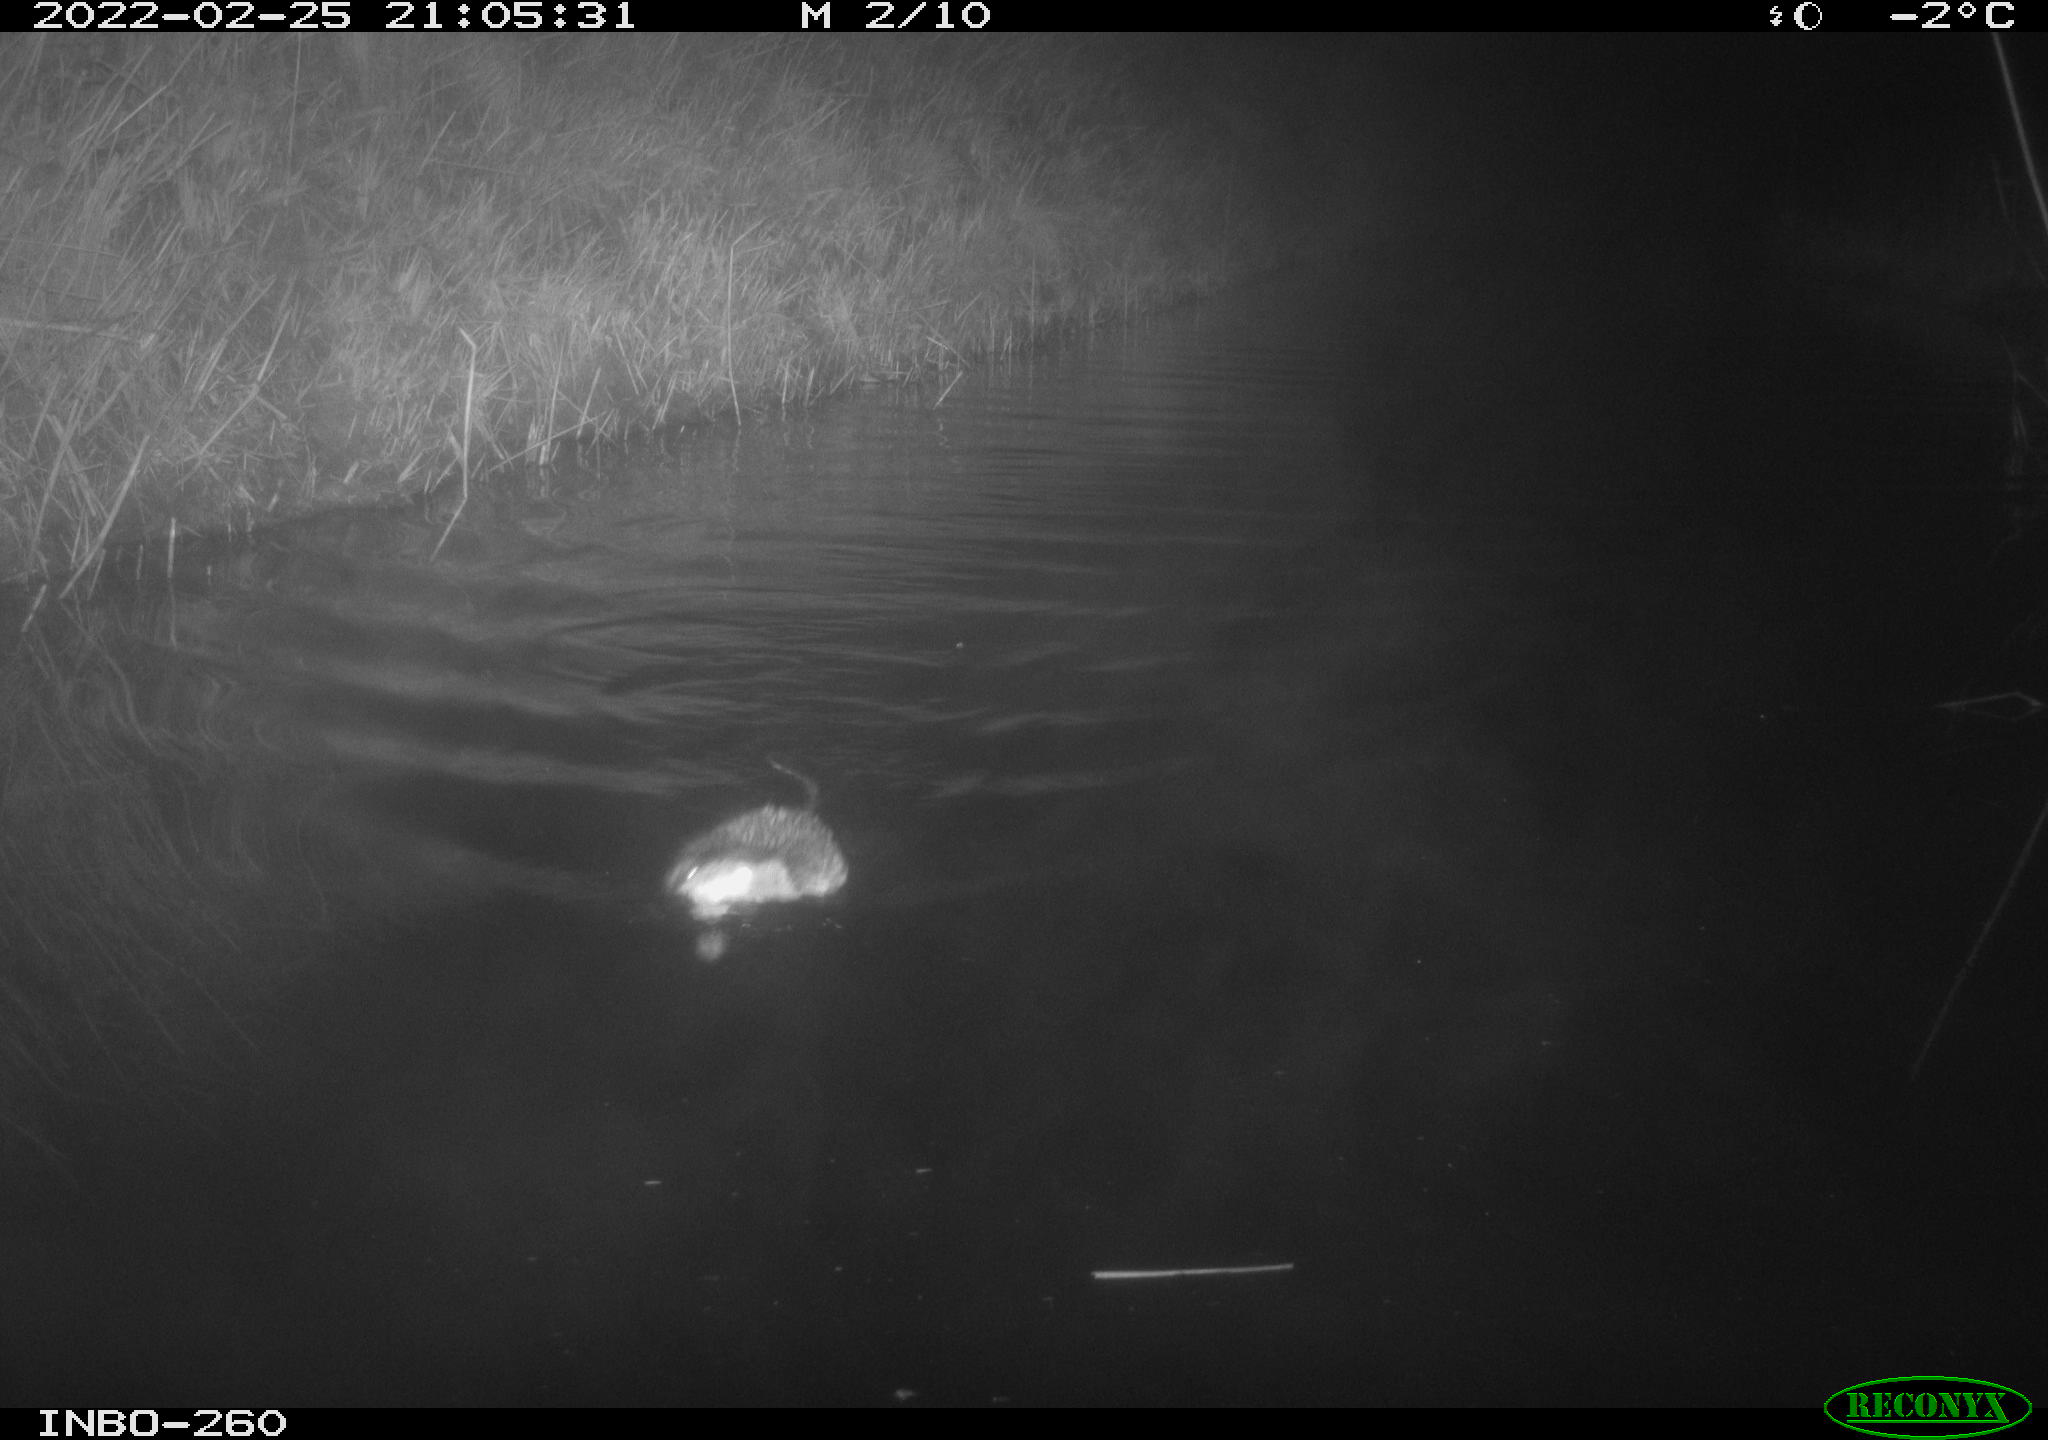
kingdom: Animalia
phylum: Chordata
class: Mammalia
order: Rodentia
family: Cricetidae
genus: Ondatra
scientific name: Ondatra zibethicus
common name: Muskrat
